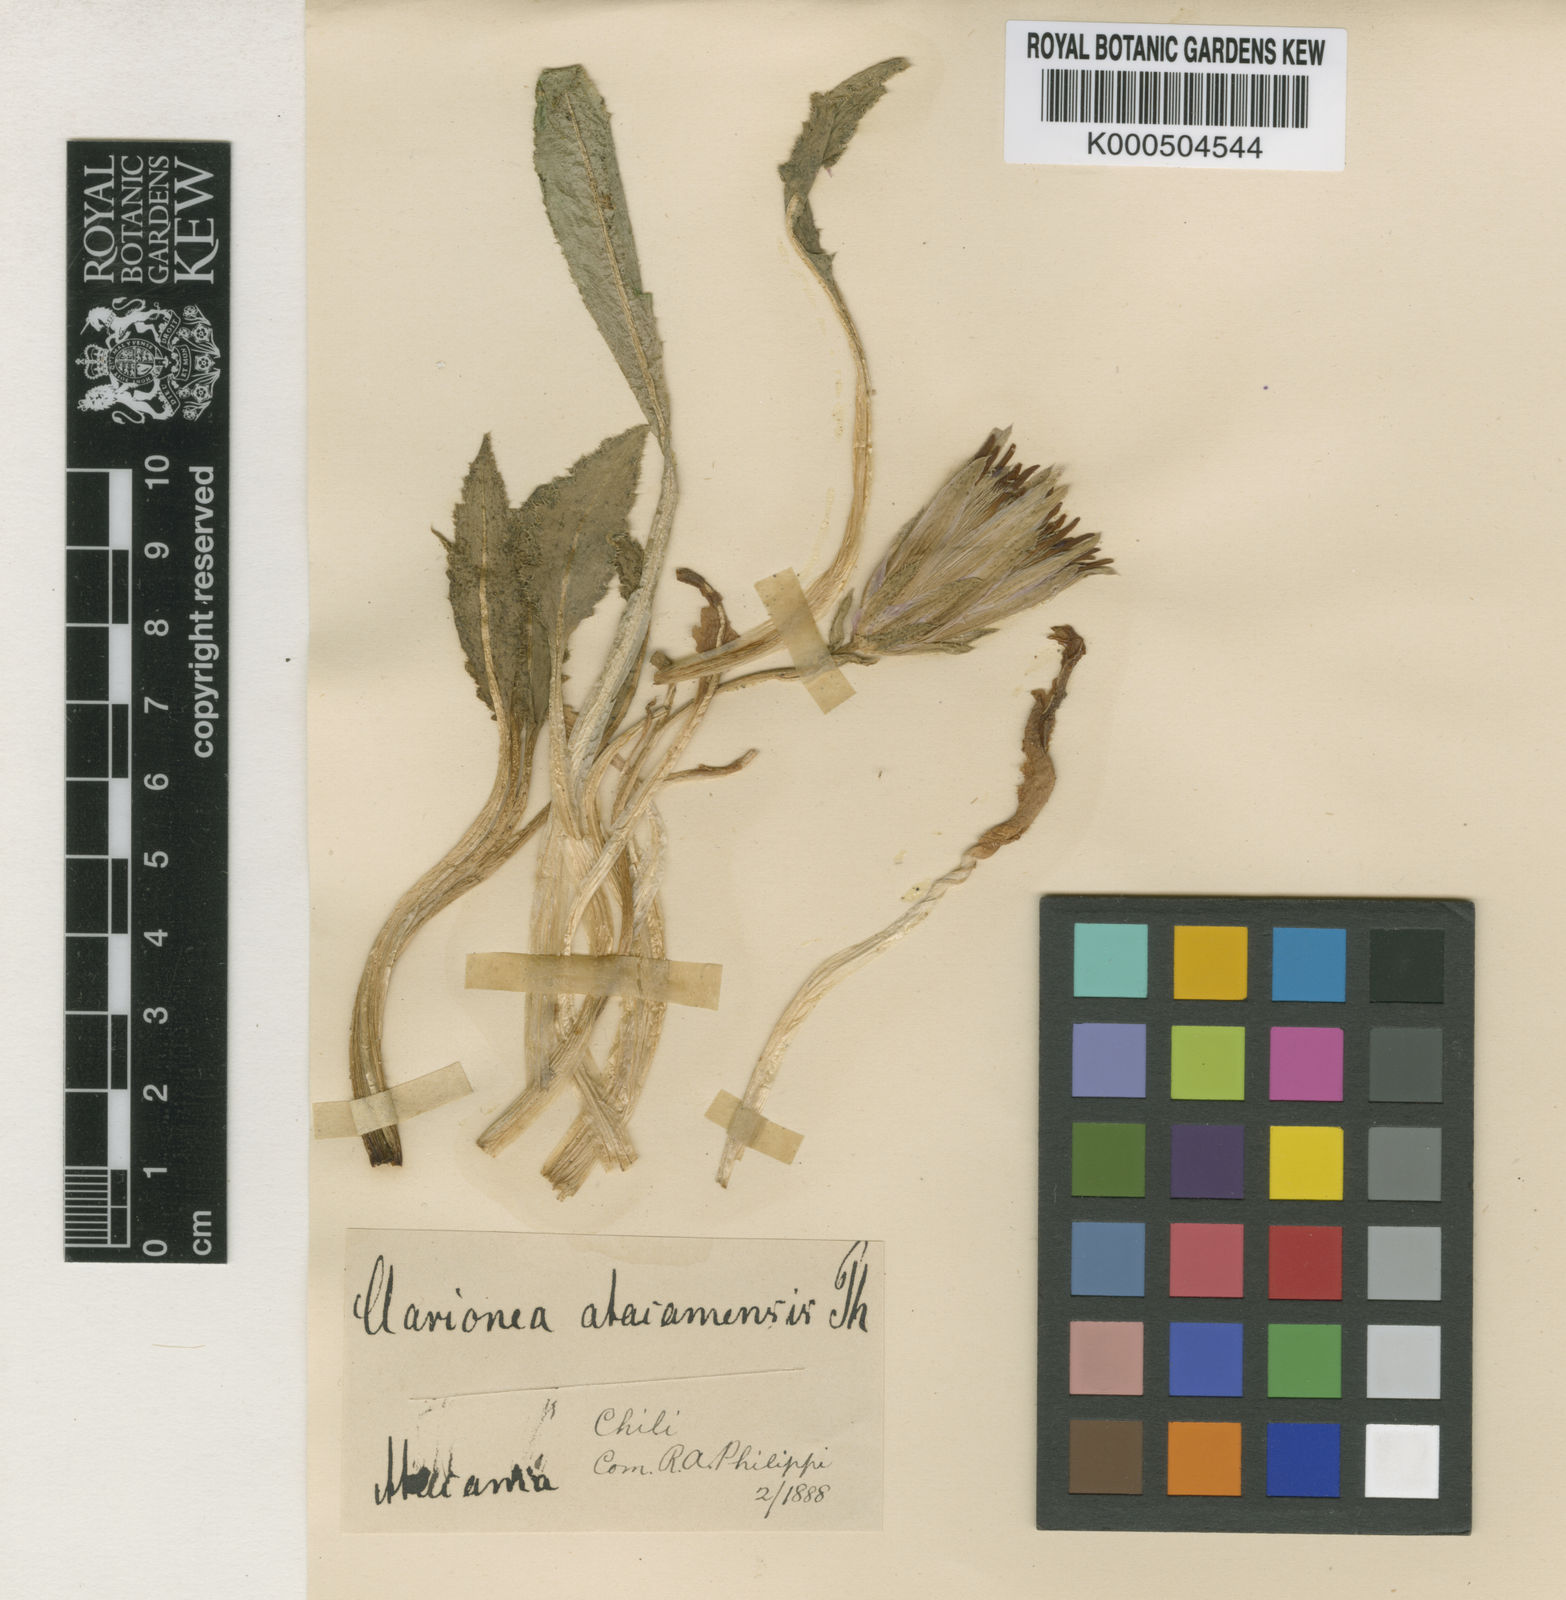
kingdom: Plantae
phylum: Tracheophyta
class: Magnoliopsida
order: Asterales
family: Asteraceae
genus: Perezia
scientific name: Perezia purpurata
